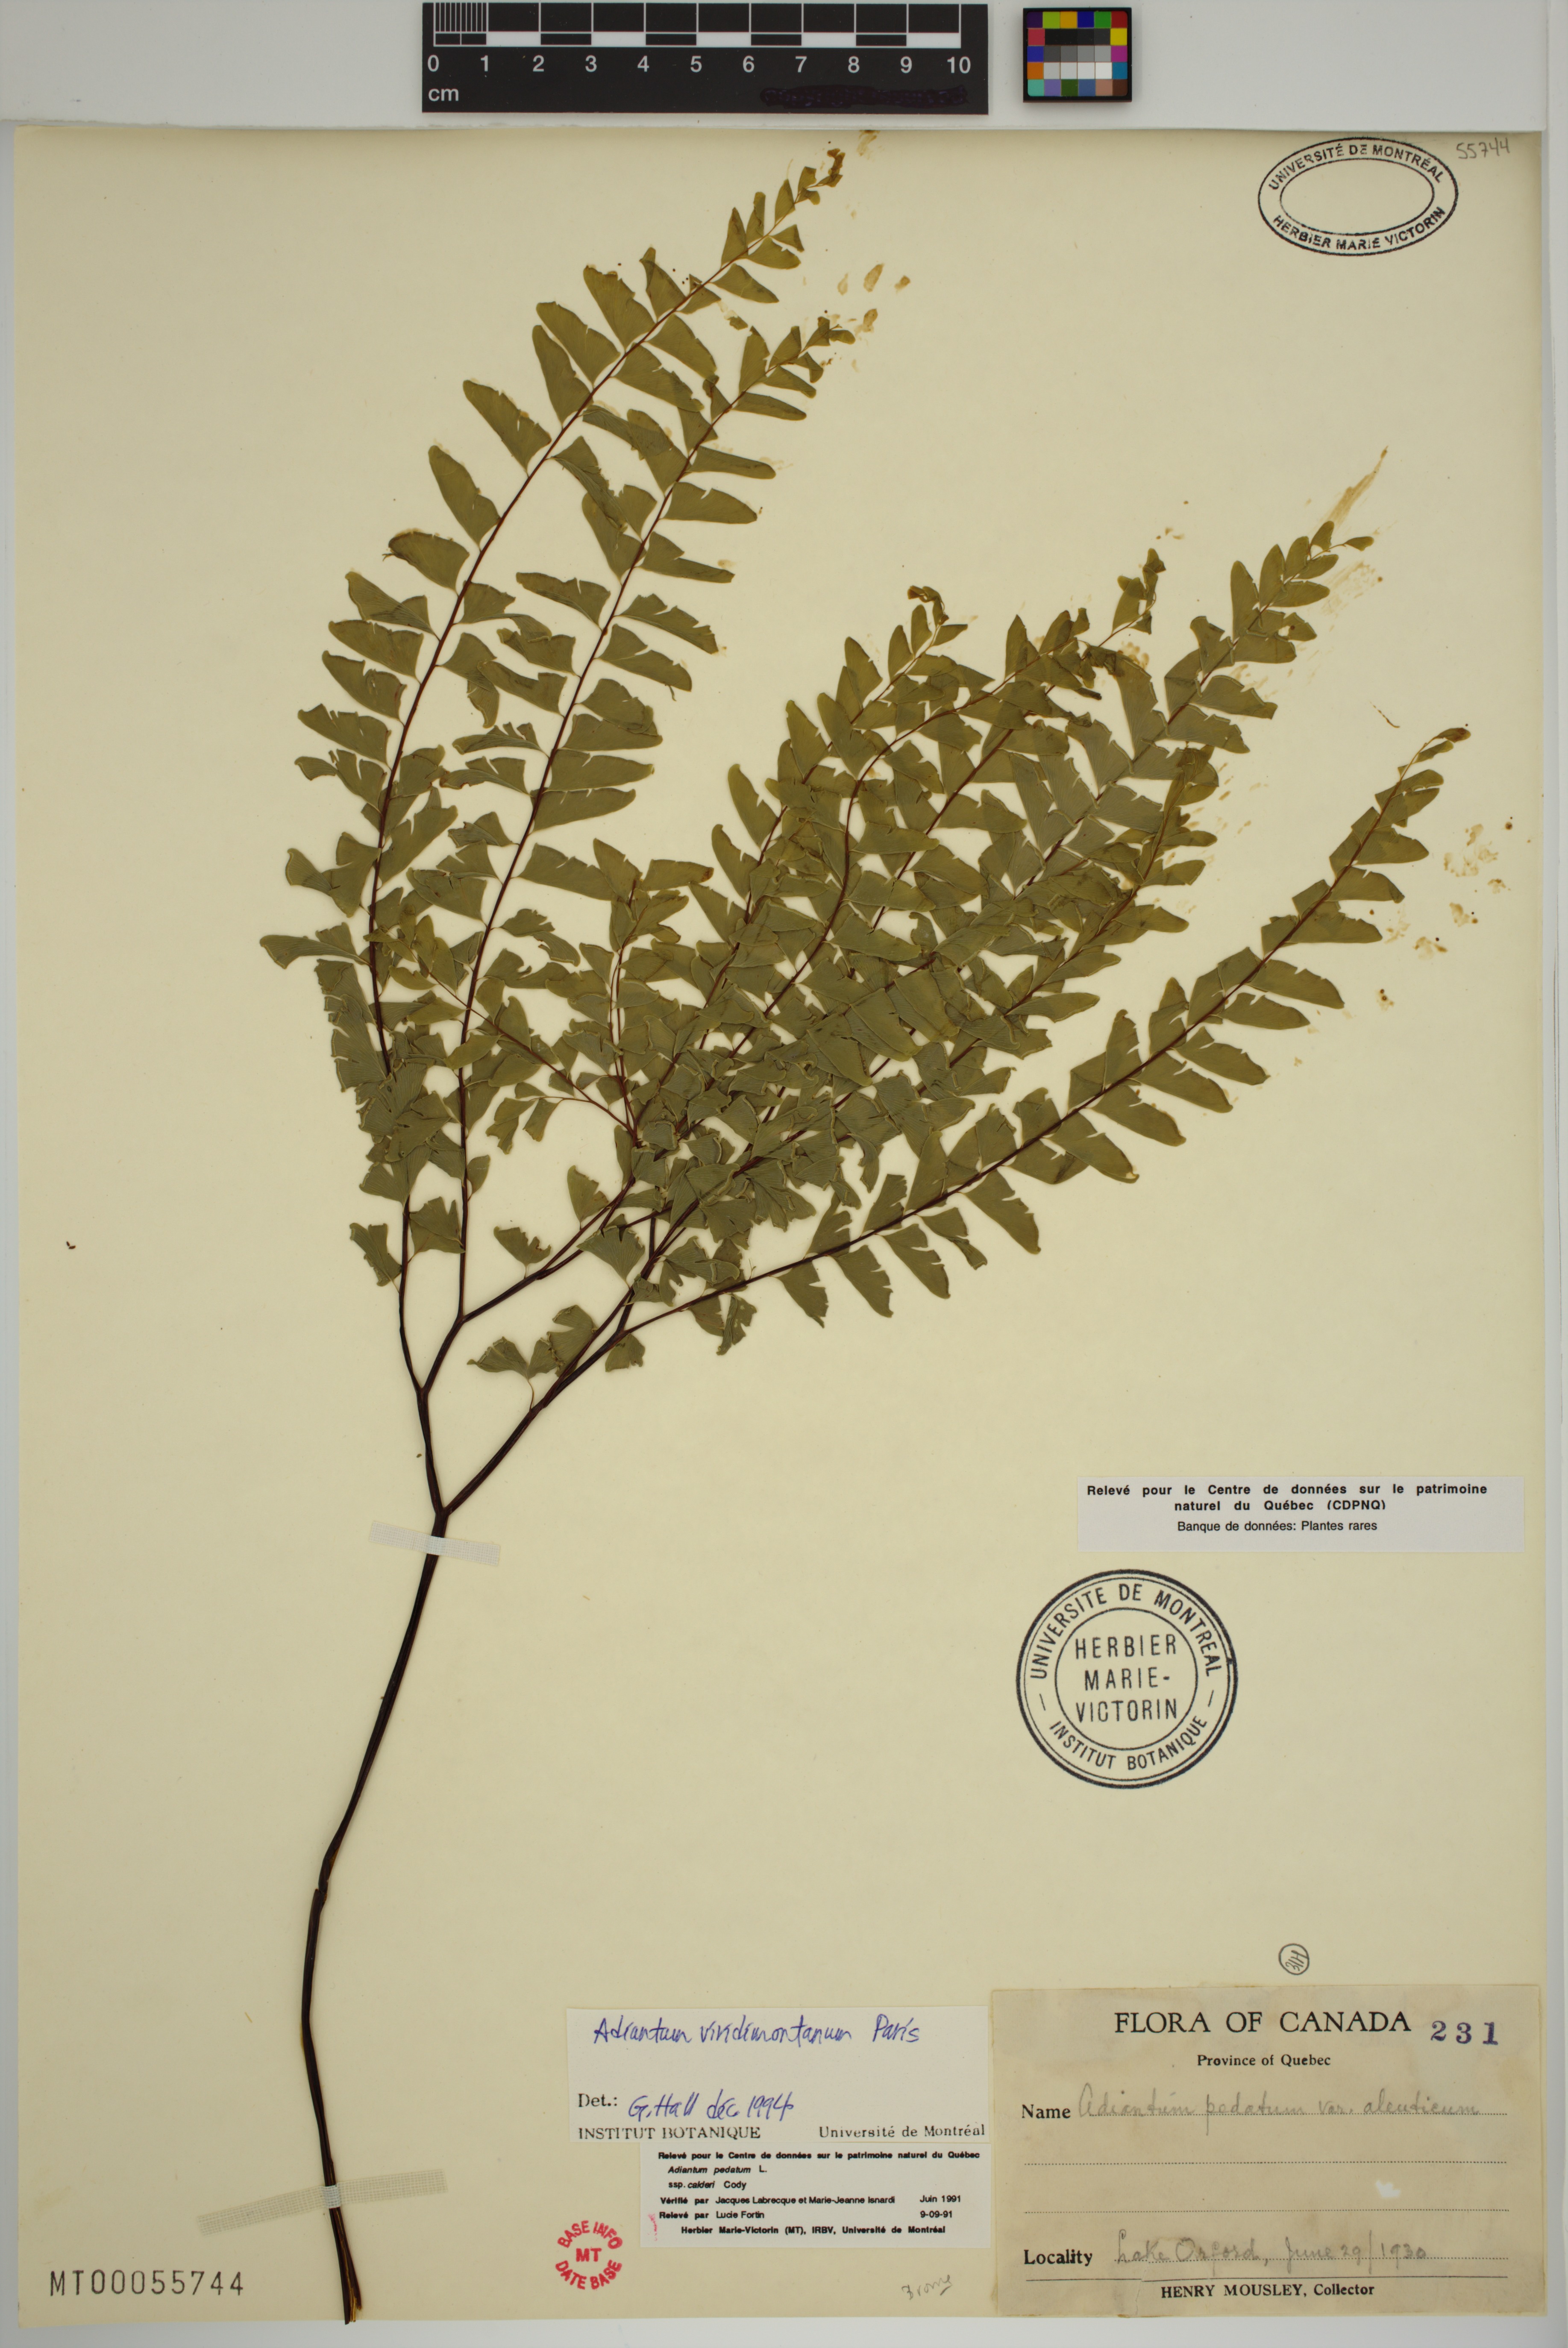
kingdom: Plantae
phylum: Tracheophyta
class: Polypodiopsida
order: Polypodiales
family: Pteridaceae
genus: Adiantum
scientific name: Adiantum viridimontanum
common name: Green mountain maidenhair
